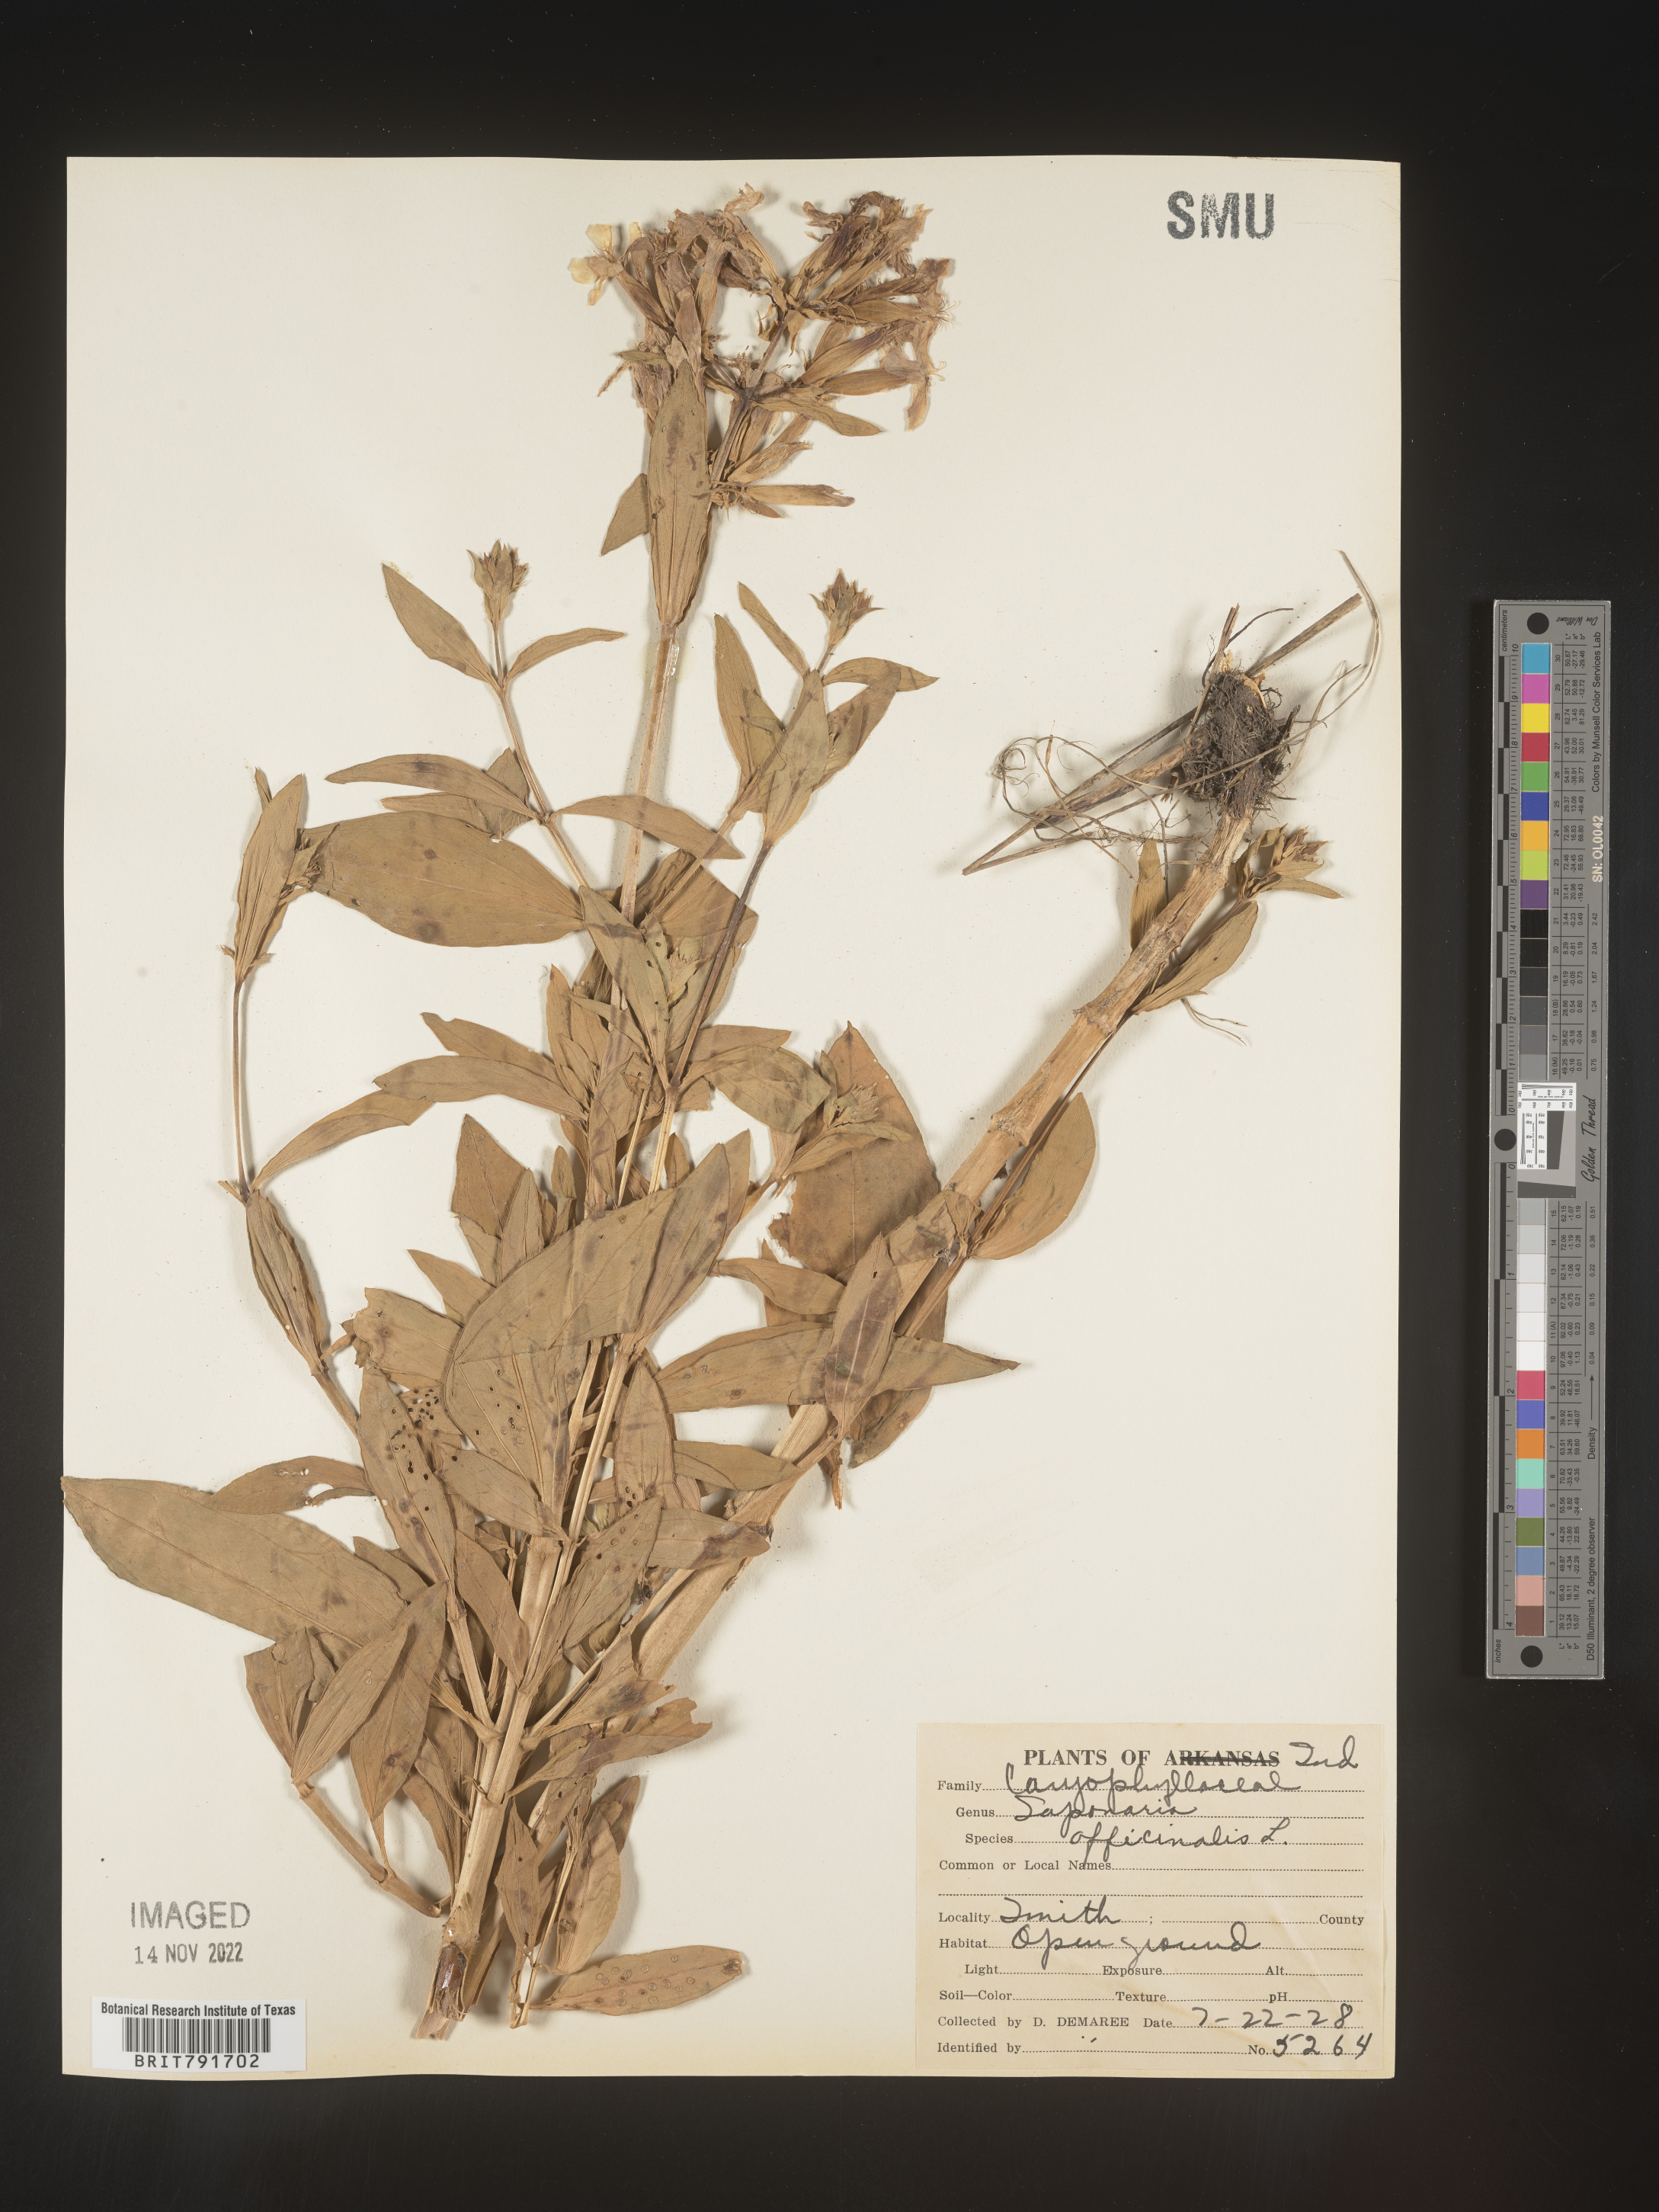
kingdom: Plantae
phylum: Tracheophyta
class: Magnoliopsida
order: Caryophyllales
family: Caryophyllaceae
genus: Saponaria
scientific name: Saponaria officinalis
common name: Soapwort
